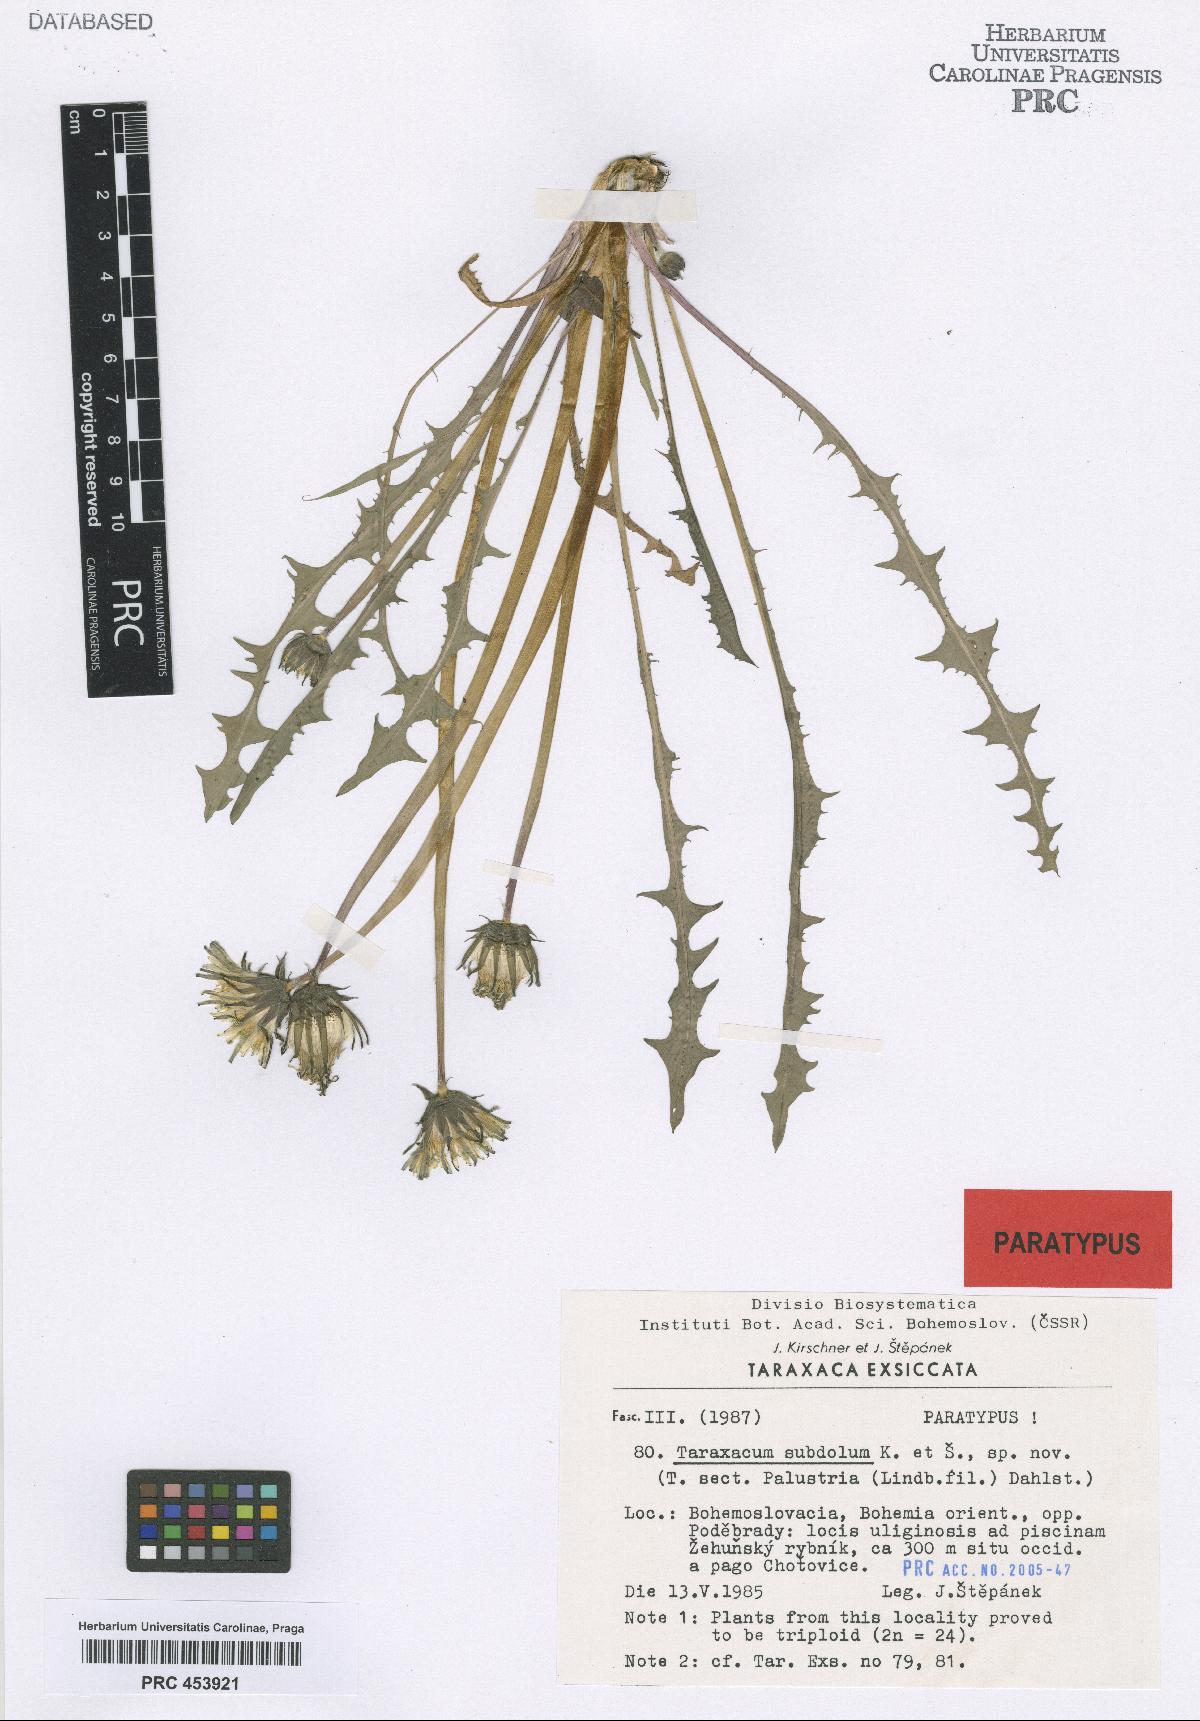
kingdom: Plantae
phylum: Tracheophyta
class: Magnoliopsida
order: Asterales
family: Asteraceae
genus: Taraxacum
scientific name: Taraxacum subdolum
